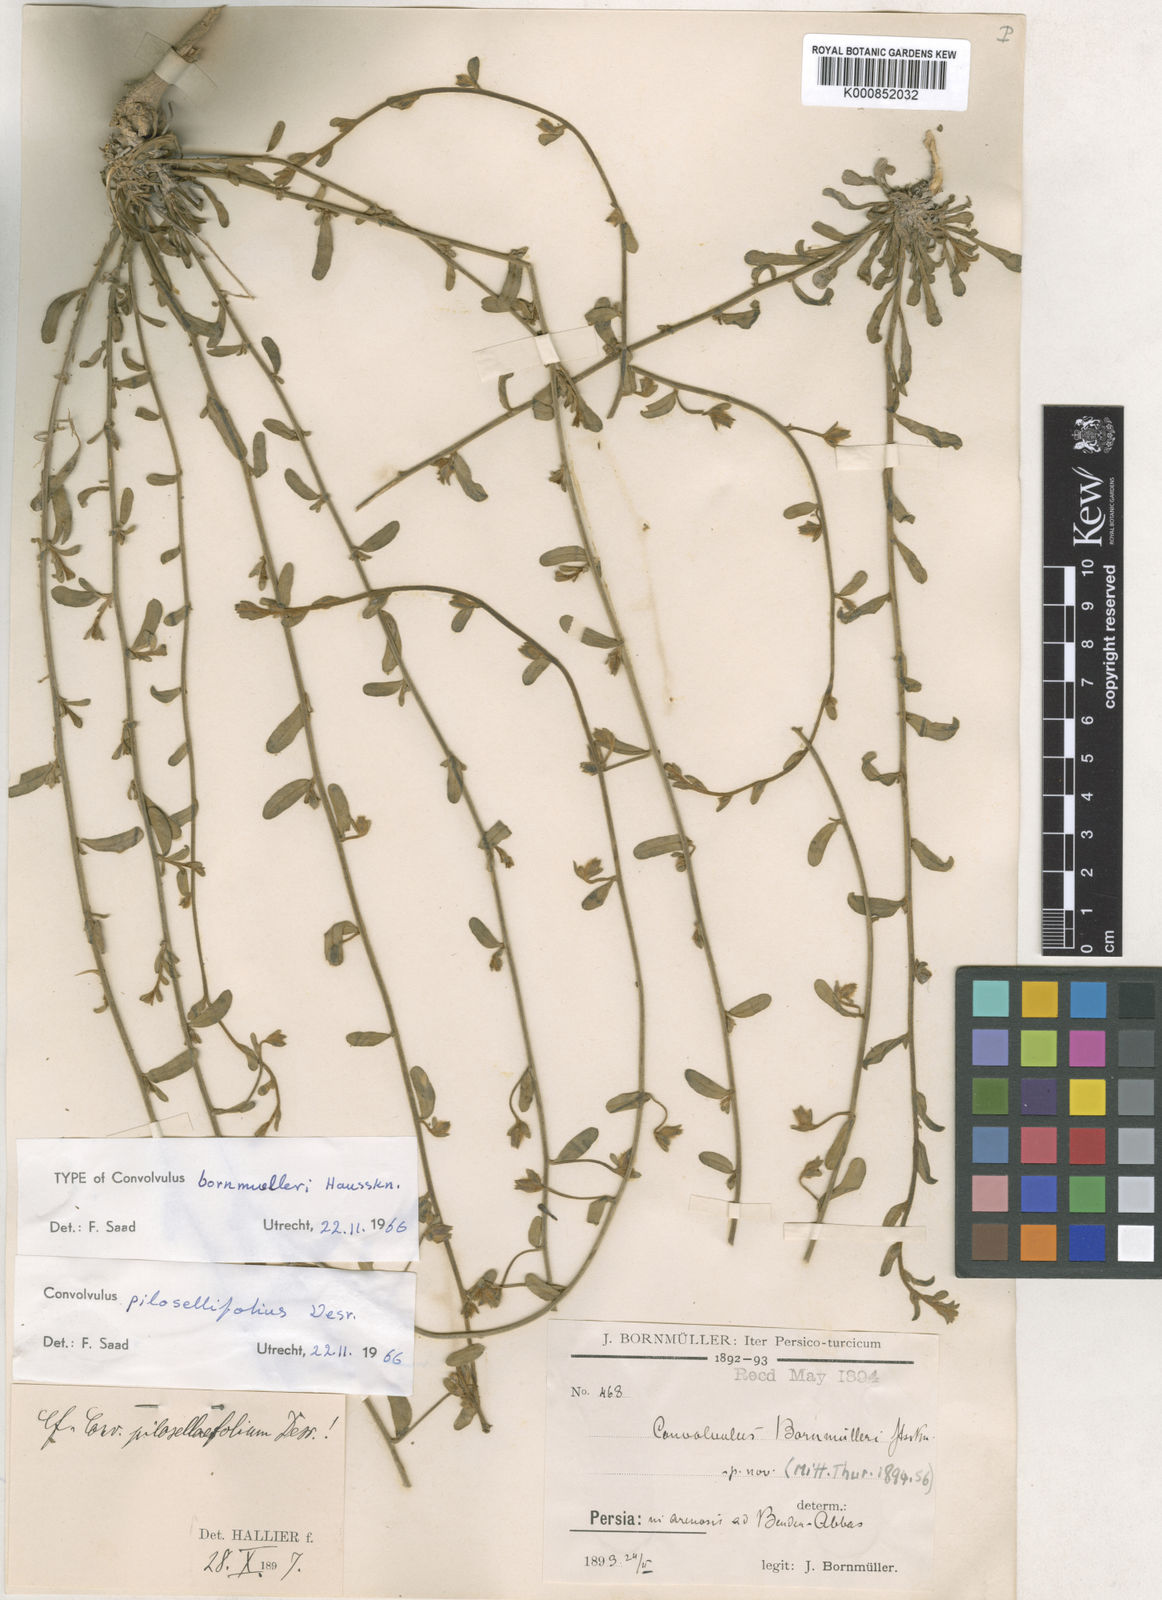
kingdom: Plantae
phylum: Tracheophyta
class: Magnoliopsida
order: Solanales
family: Convolvulaceae
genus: Convolvulus
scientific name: Convolvulus pilosellifolius
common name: Soft bindweed
